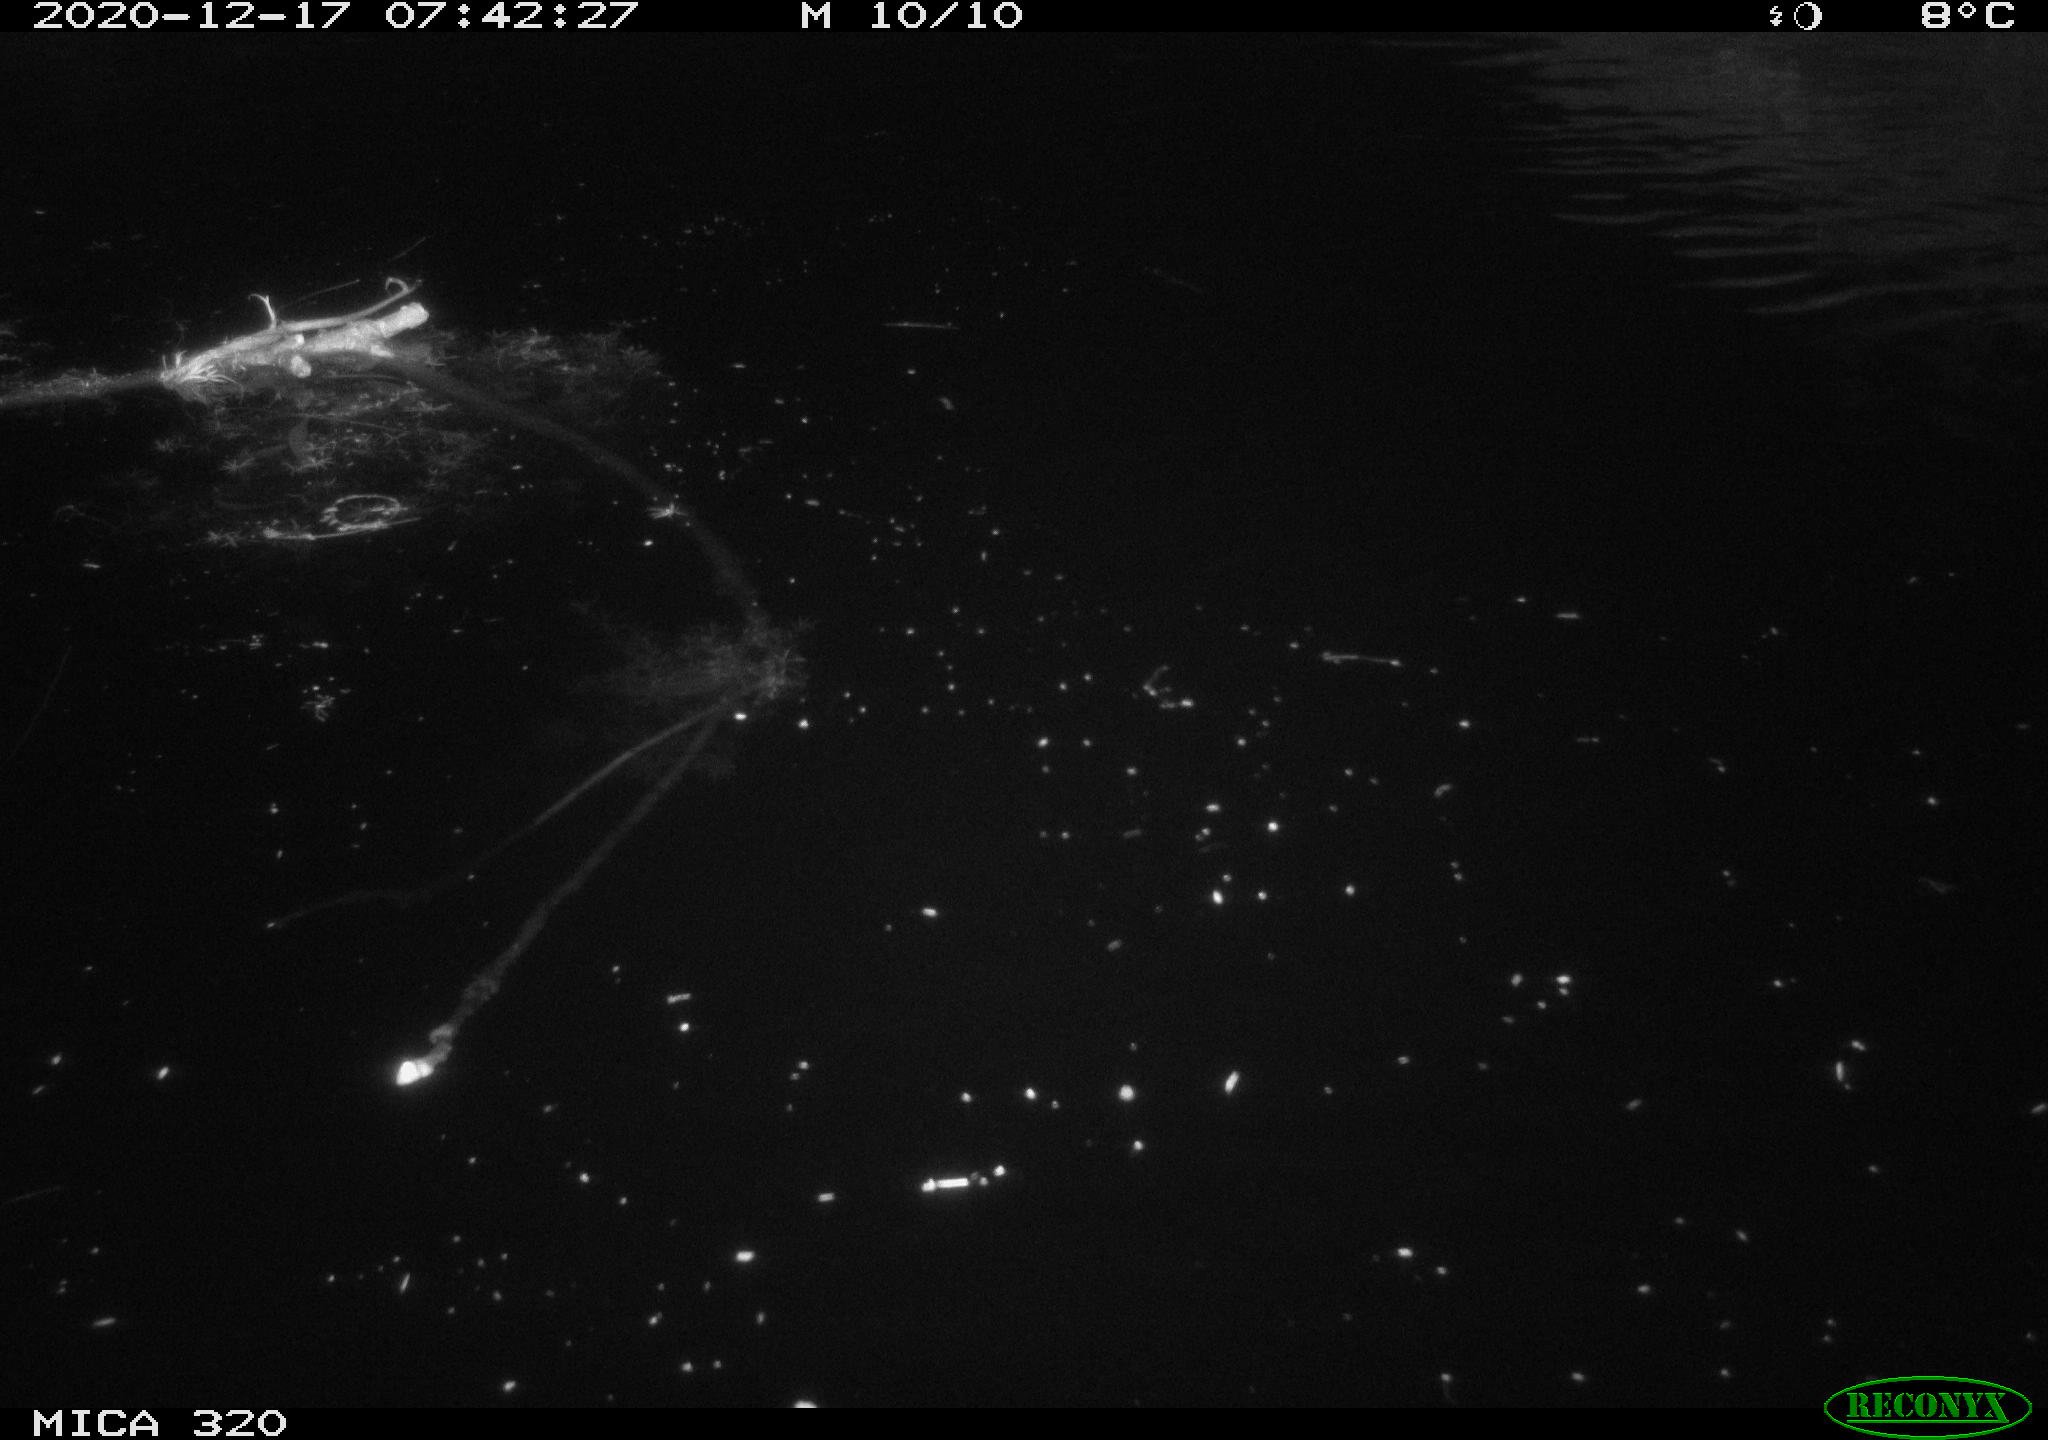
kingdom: Animalia
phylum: Chordata
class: Aves
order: Anseriformes
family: Anatidae
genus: Anas
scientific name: Anas platyrhynchos
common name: Mallard
